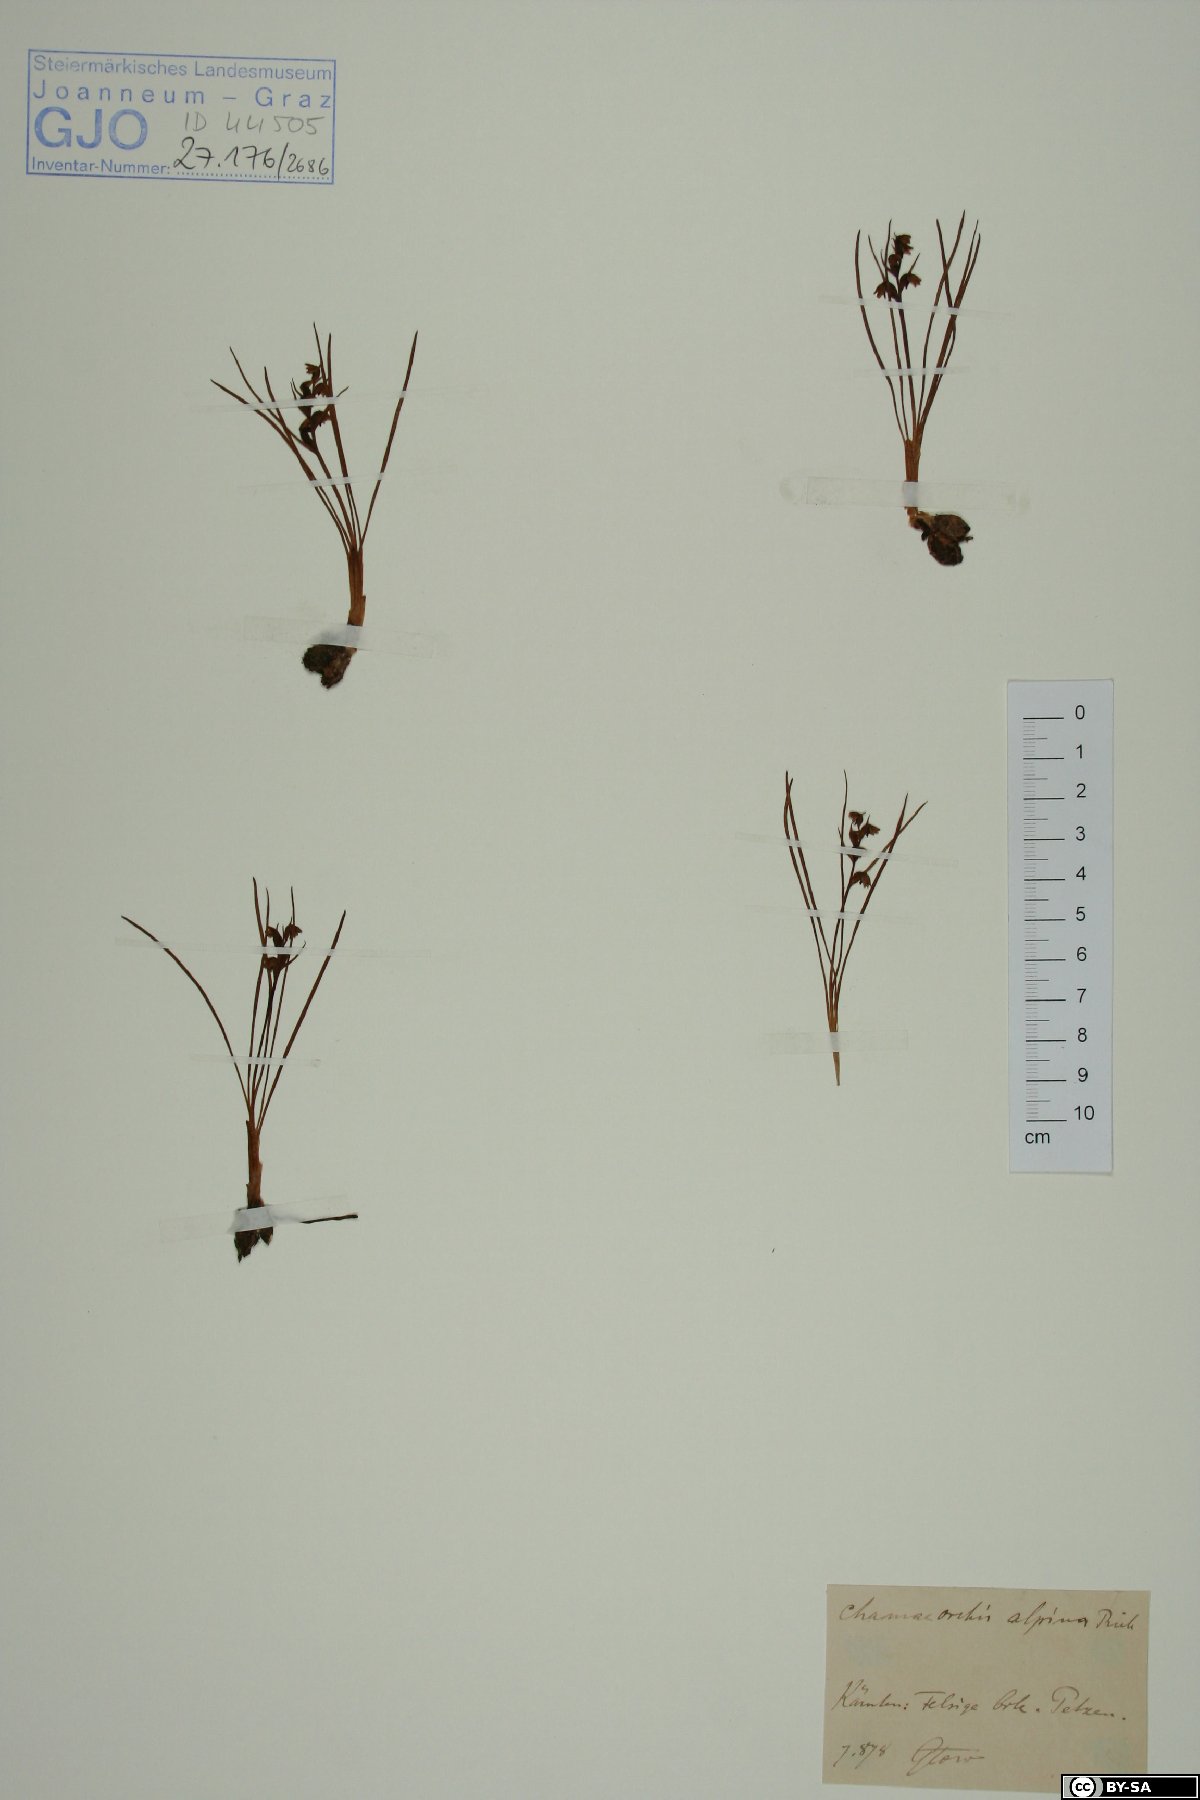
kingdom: Plantae
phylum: Tracheophyta
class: Liliopsida
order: Asparagales
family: Orchidaceae
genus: Chamorchis
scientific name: Chamorchis alpina
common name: Alpine chamorchis
